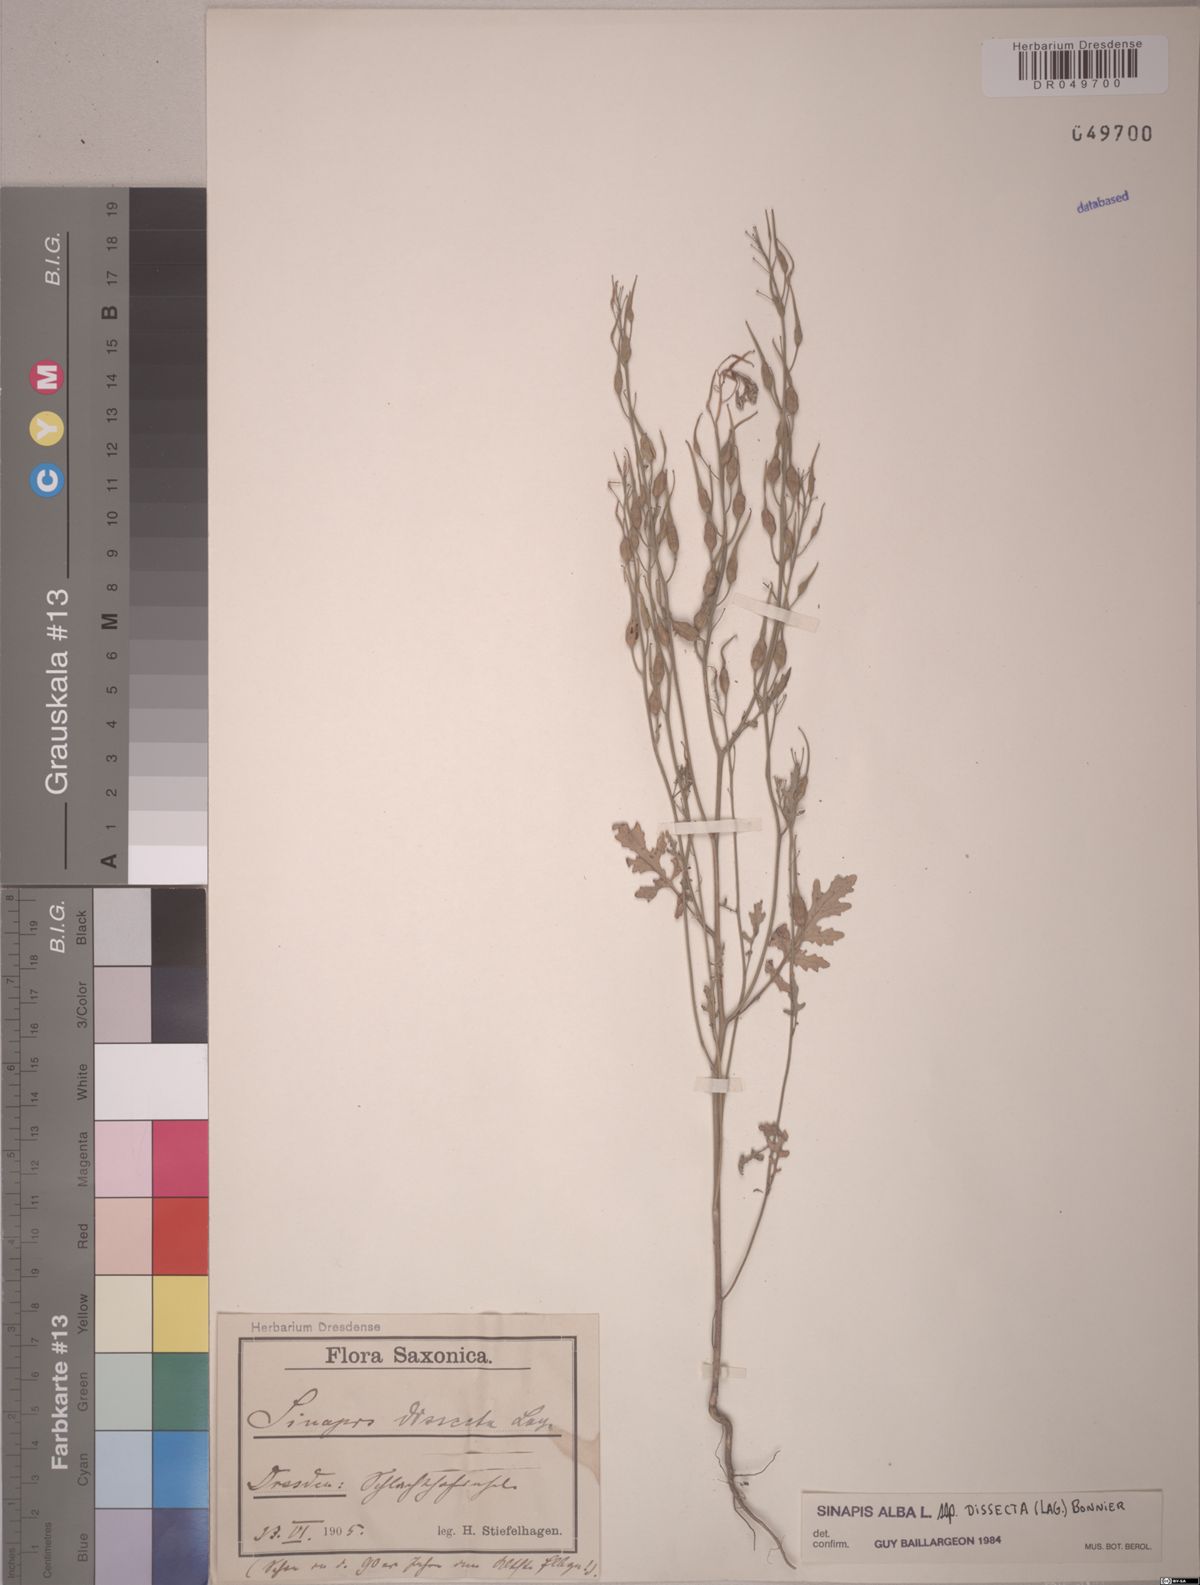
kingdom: Plantae
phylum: Tracheophyta
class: Magnoliopsida
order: Brassicales
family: Brassicaceae
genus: Sinapis
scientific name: Sinapis alba
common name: White mustard
